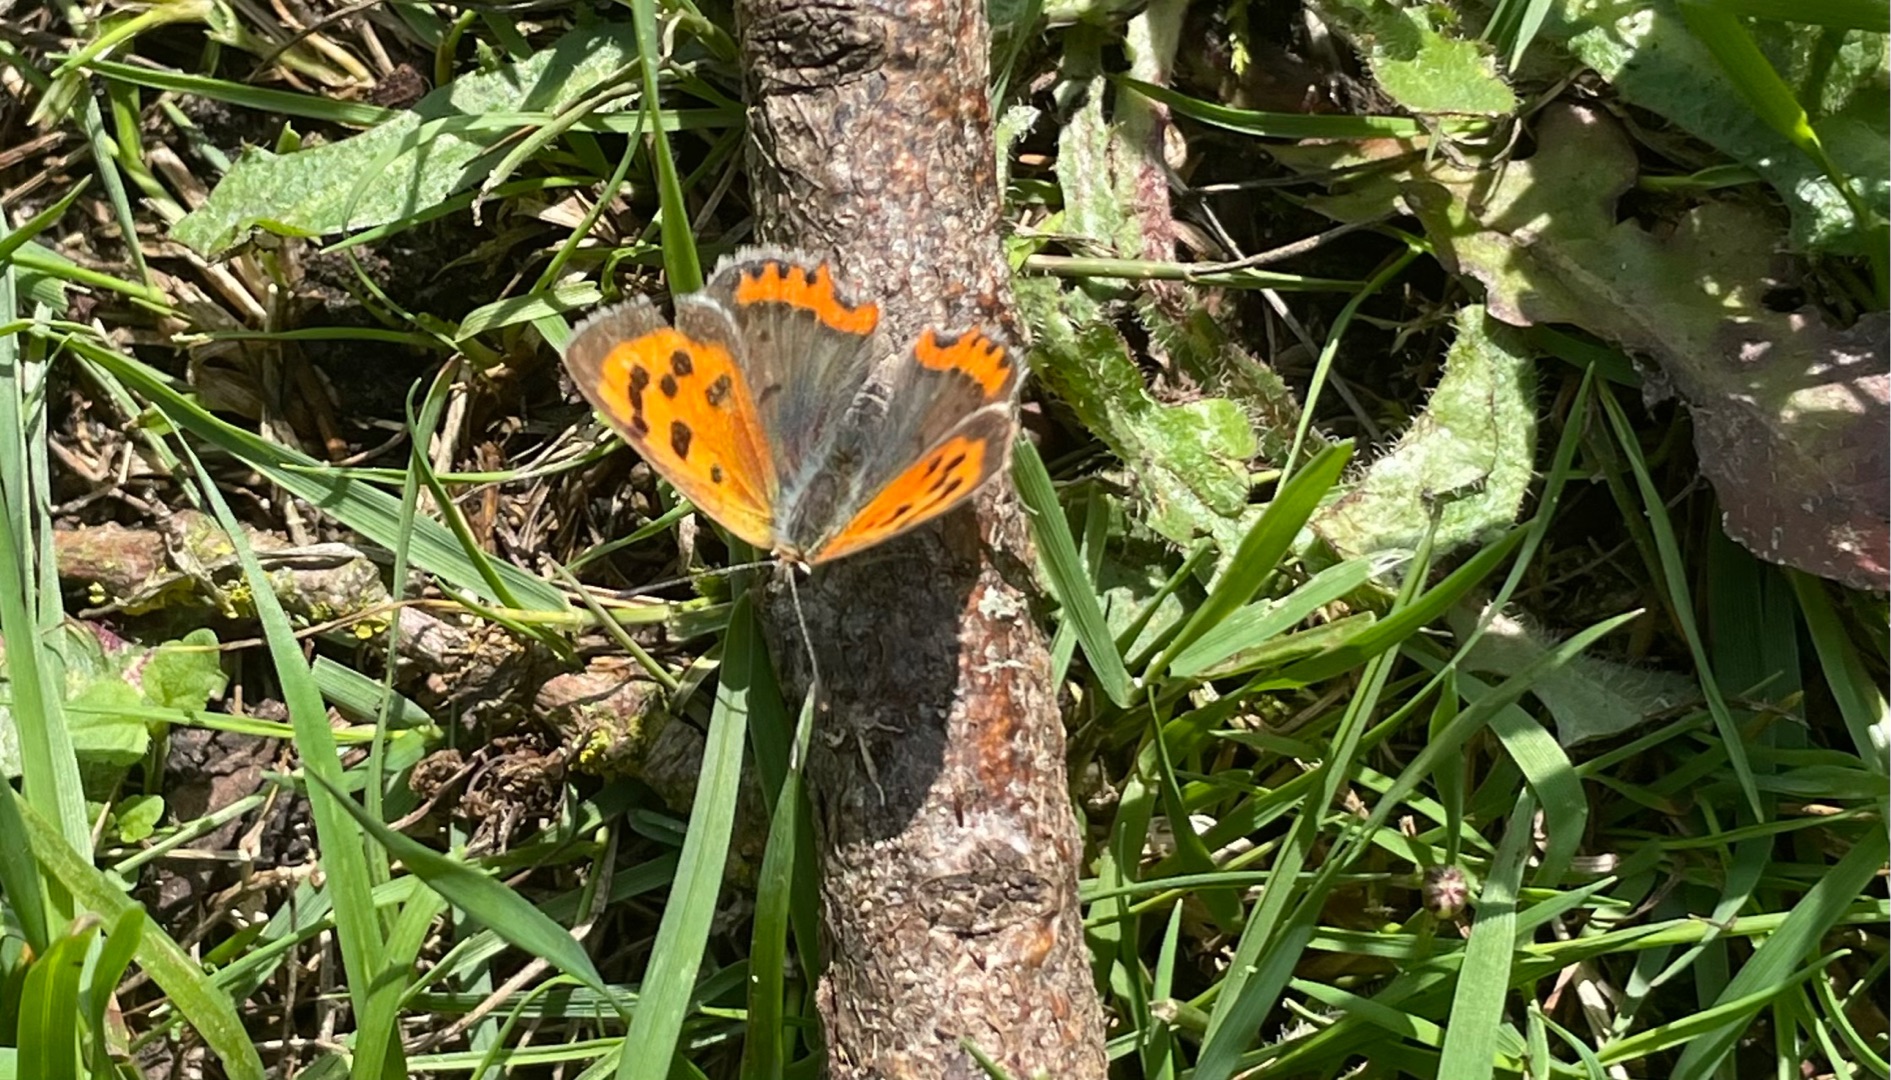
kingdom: Animalia
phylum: Arthropoda
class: Insecta
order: Lepidoptera
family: Lycaenidae
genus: Lycaena
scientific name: Lycaena phlaeas
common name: Lille ildfugl
